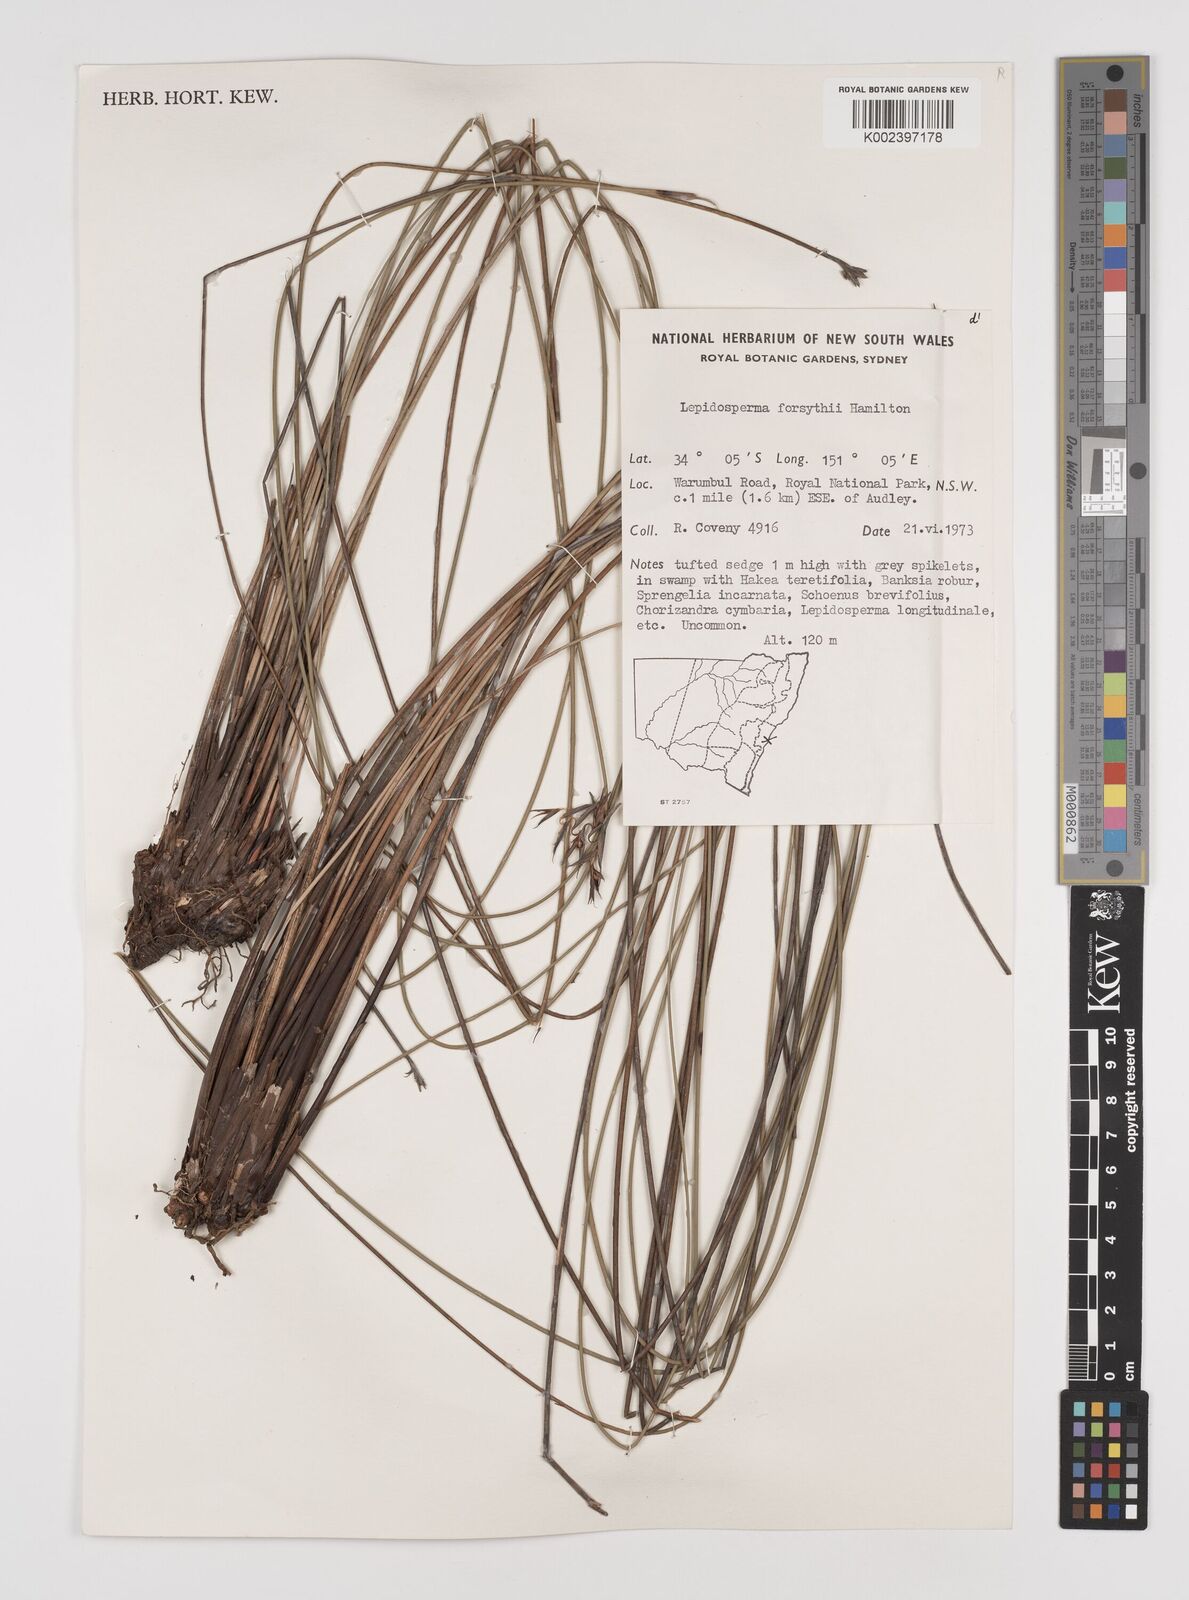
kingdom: Plantae
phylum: Tracheophyta
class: Liliopsida
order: Poales
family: Cyperaceae
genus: Lepidosperma
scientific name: Lepidosperma forsythii
